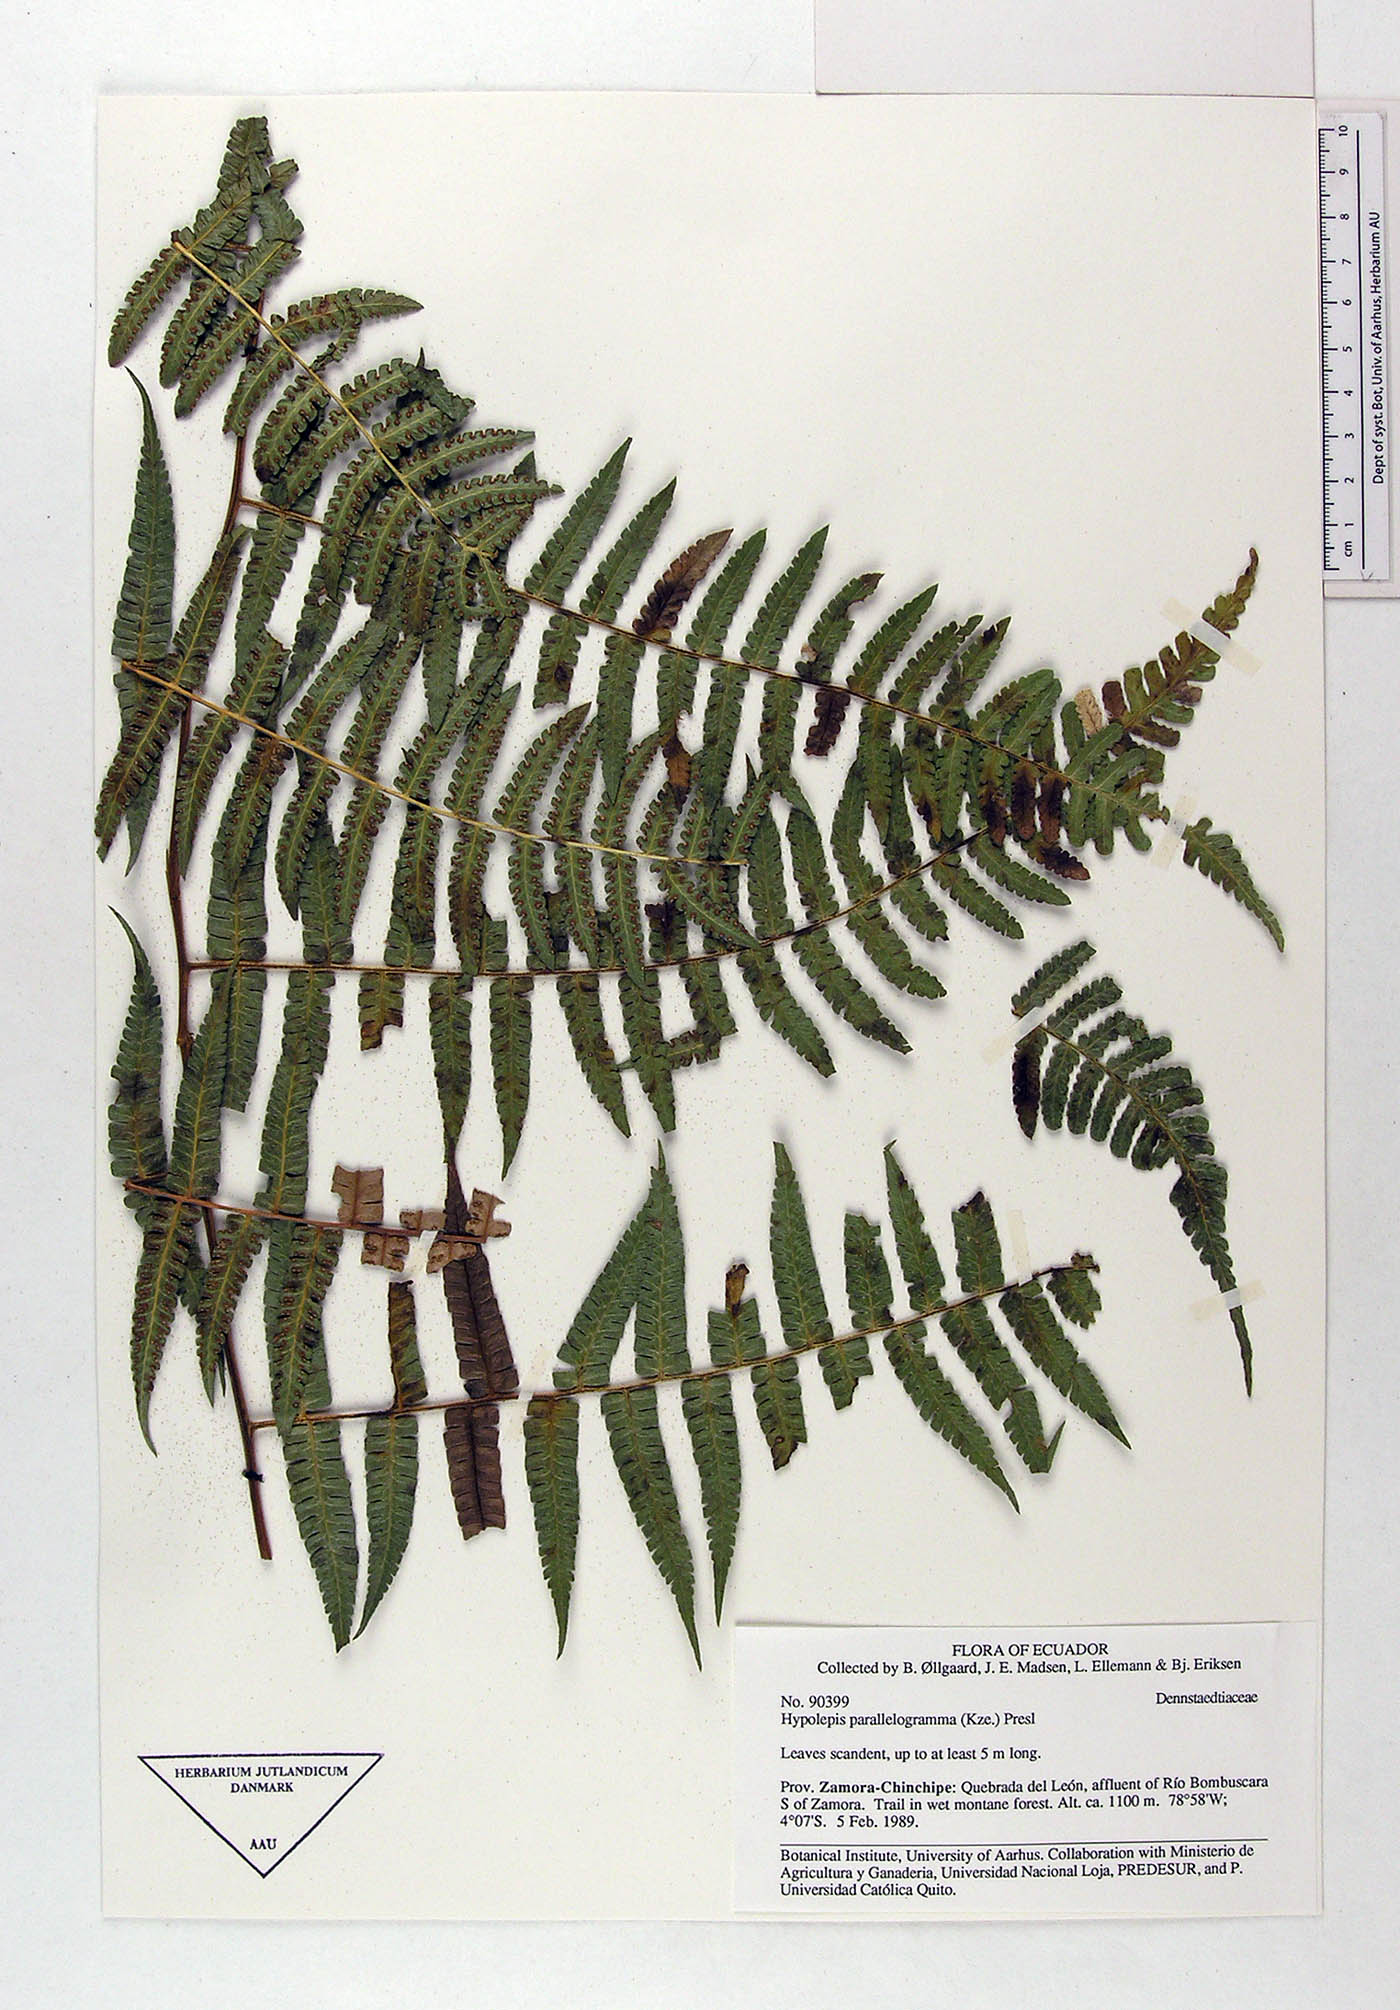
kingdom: Plantae
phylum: Tracheophyta
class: Polypodiopsida
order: Polypodiales
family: Dennstaedtiaceae
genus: Hypolepis
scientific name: Hypolepis parallelogramma
